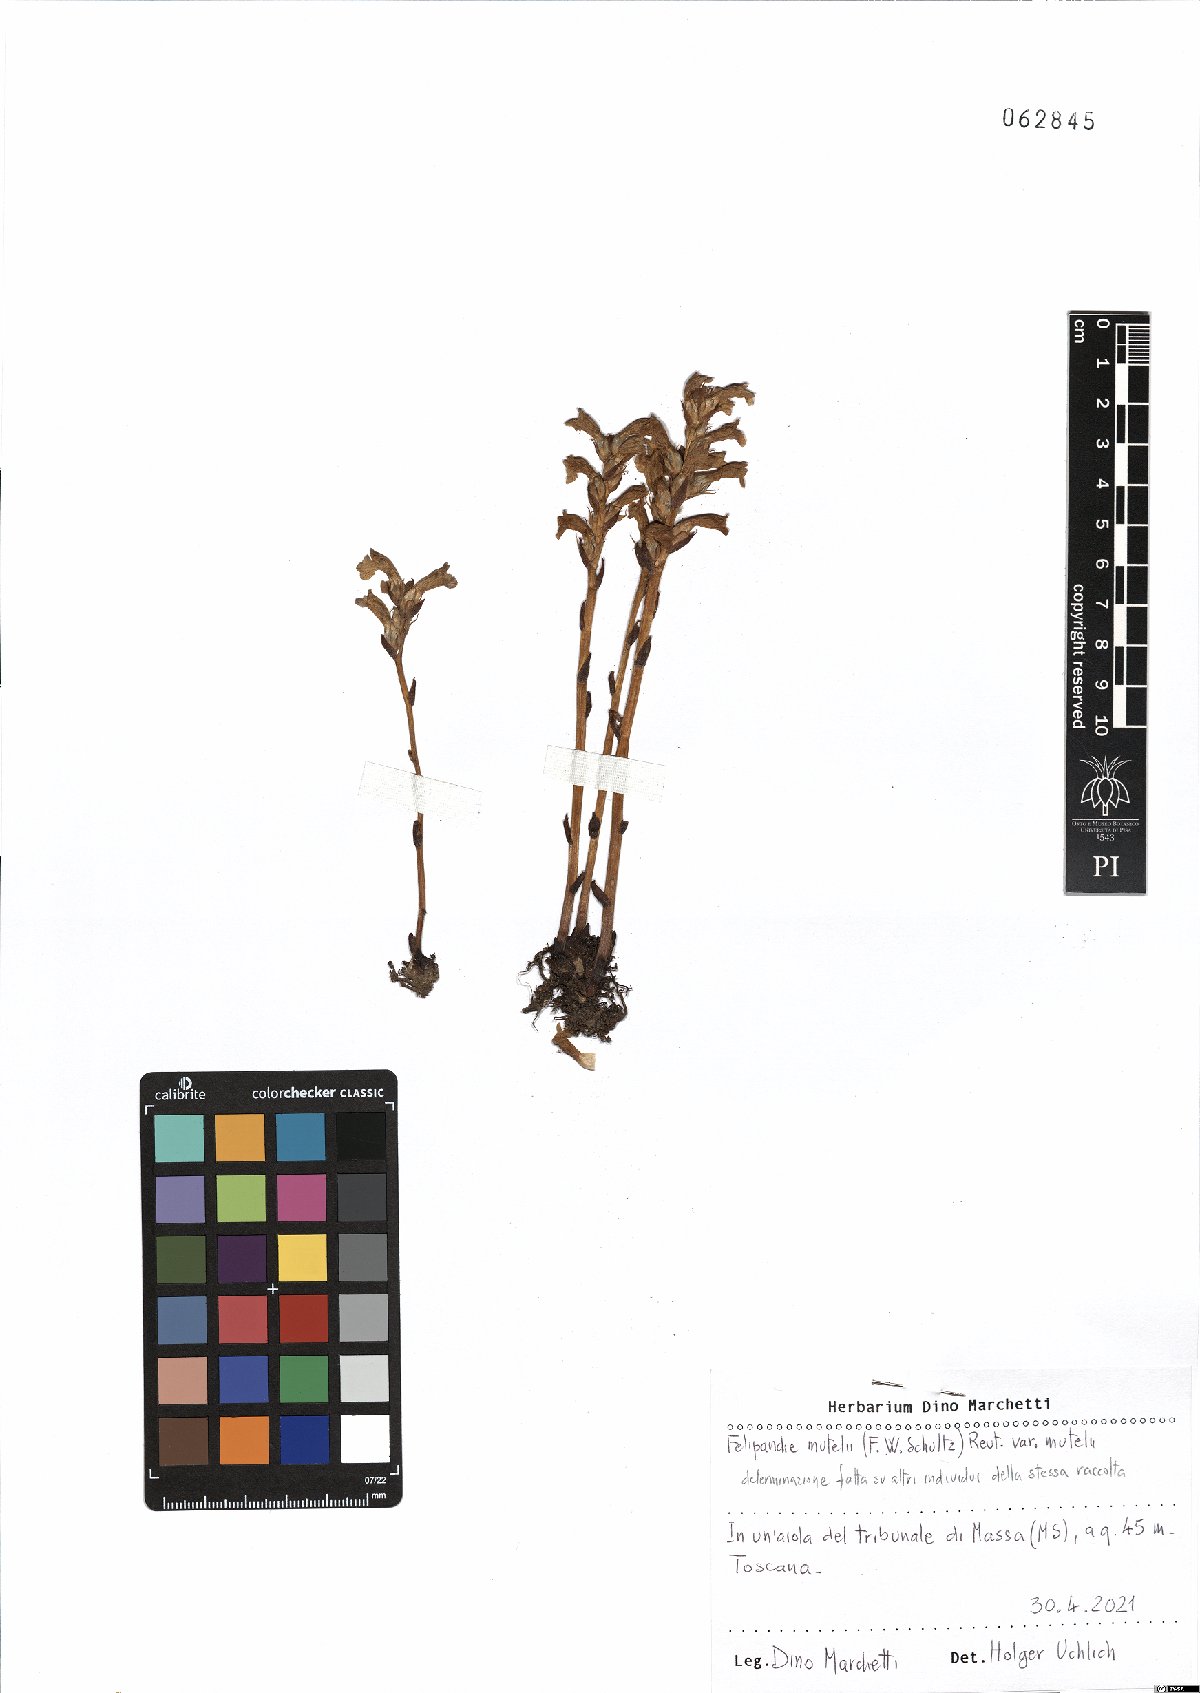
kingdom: Plantae
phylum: Tracheophyta
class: Magnoliopsida
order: Lamiales
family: Orobanchaceae
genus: Phelipanche
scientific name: Phelipanche mutelii
